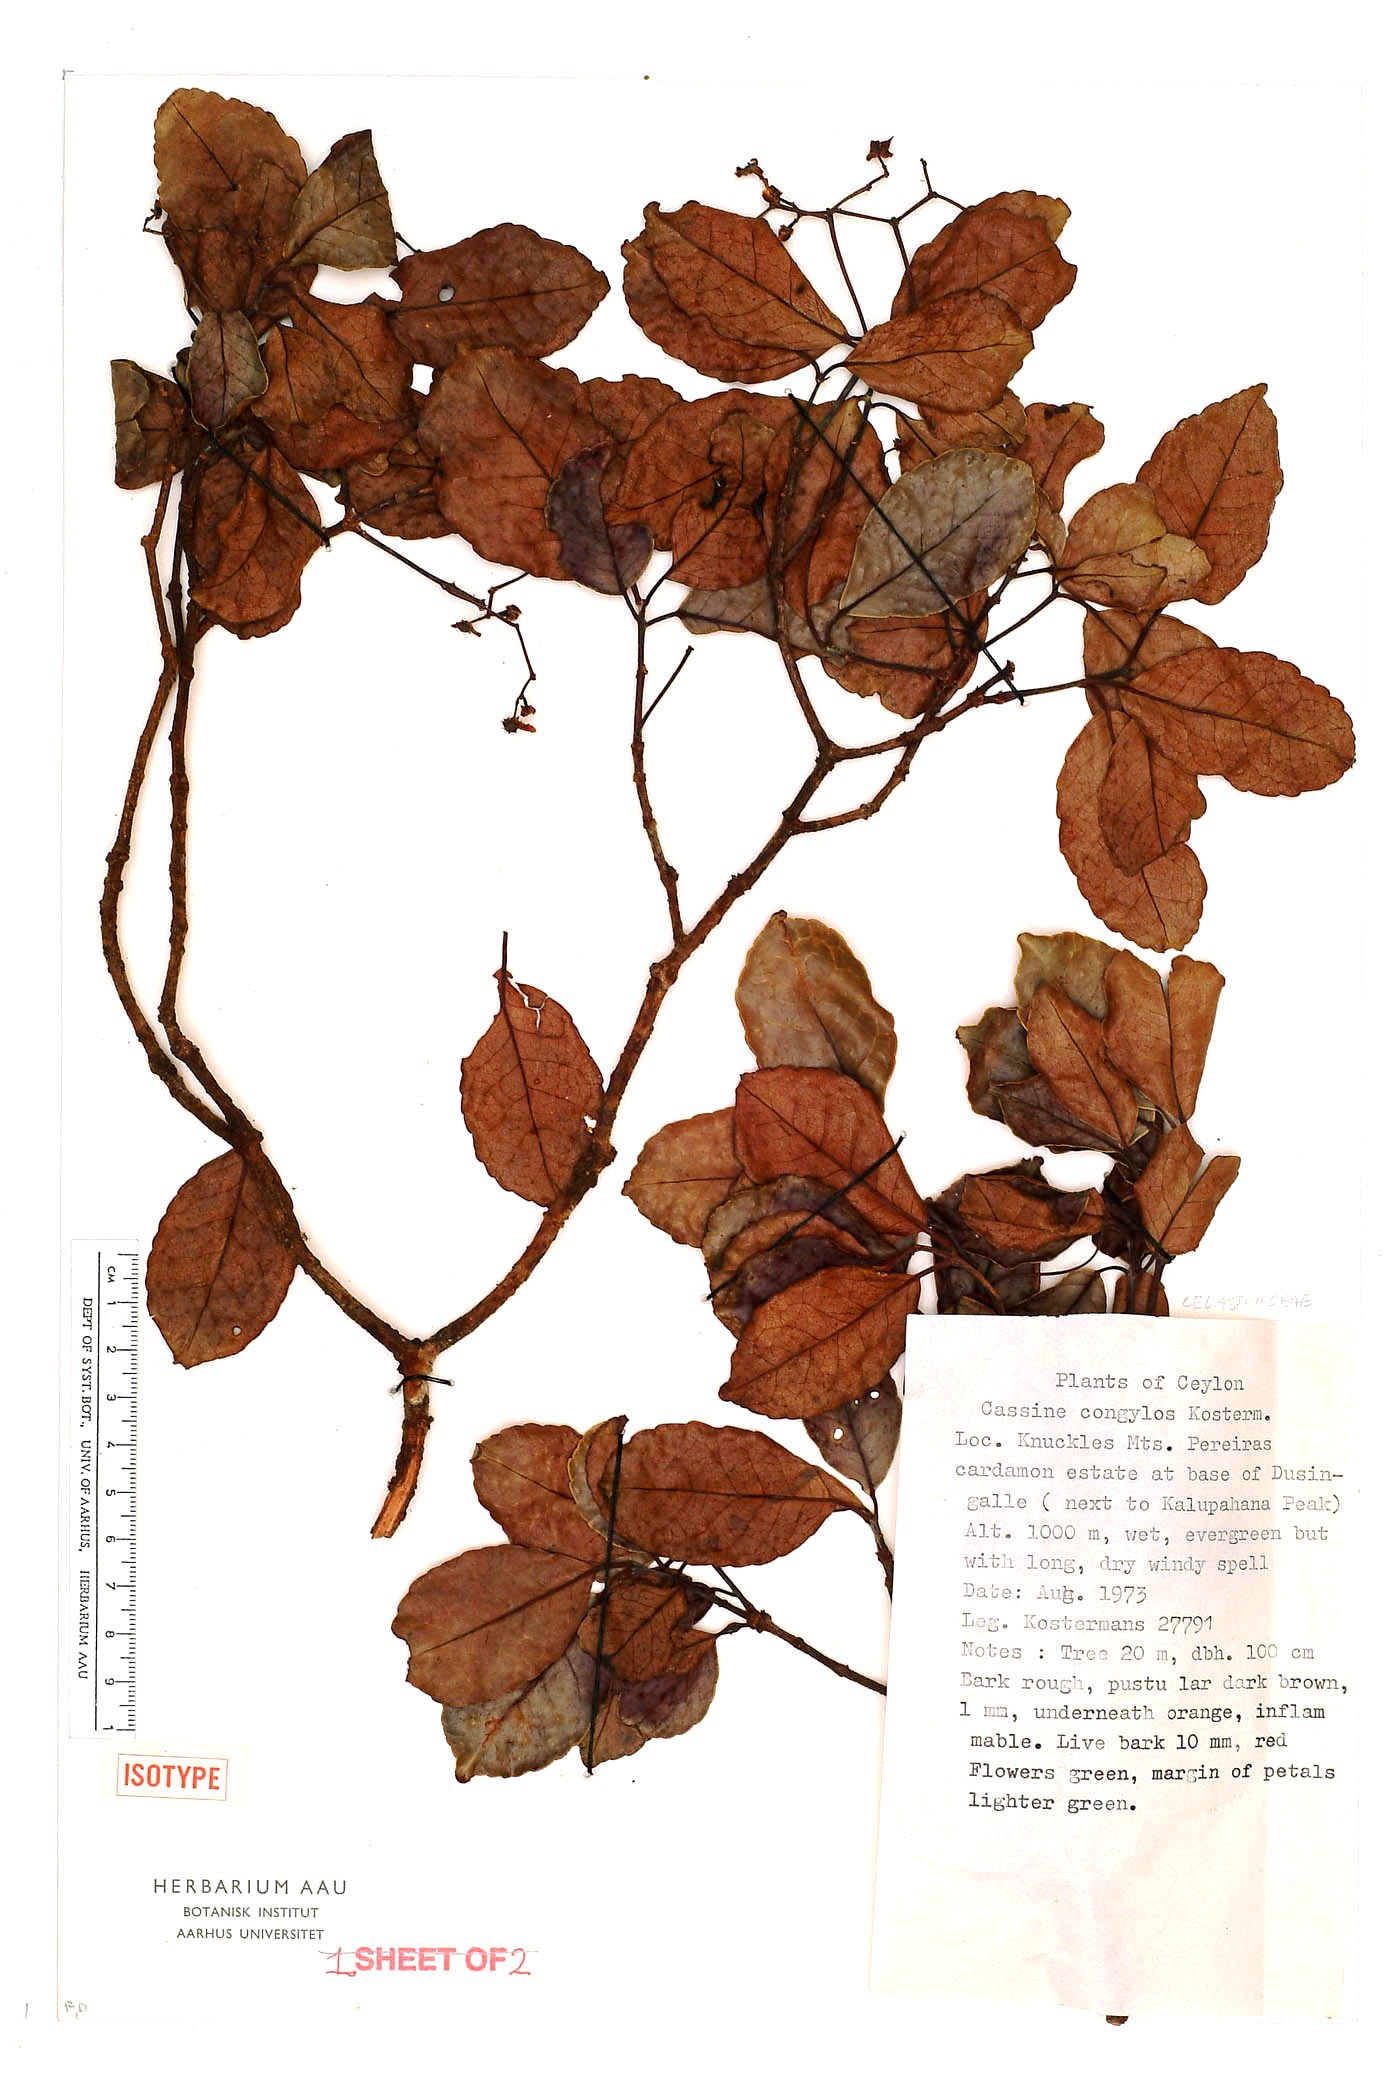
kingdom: Plantae
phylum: Tracheophyta
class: Magnoliopsida
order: Celastrales
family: Celastraceae
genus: Elaeodendron
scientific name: Elaeodendron glaucum
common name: Ceylon-tea
